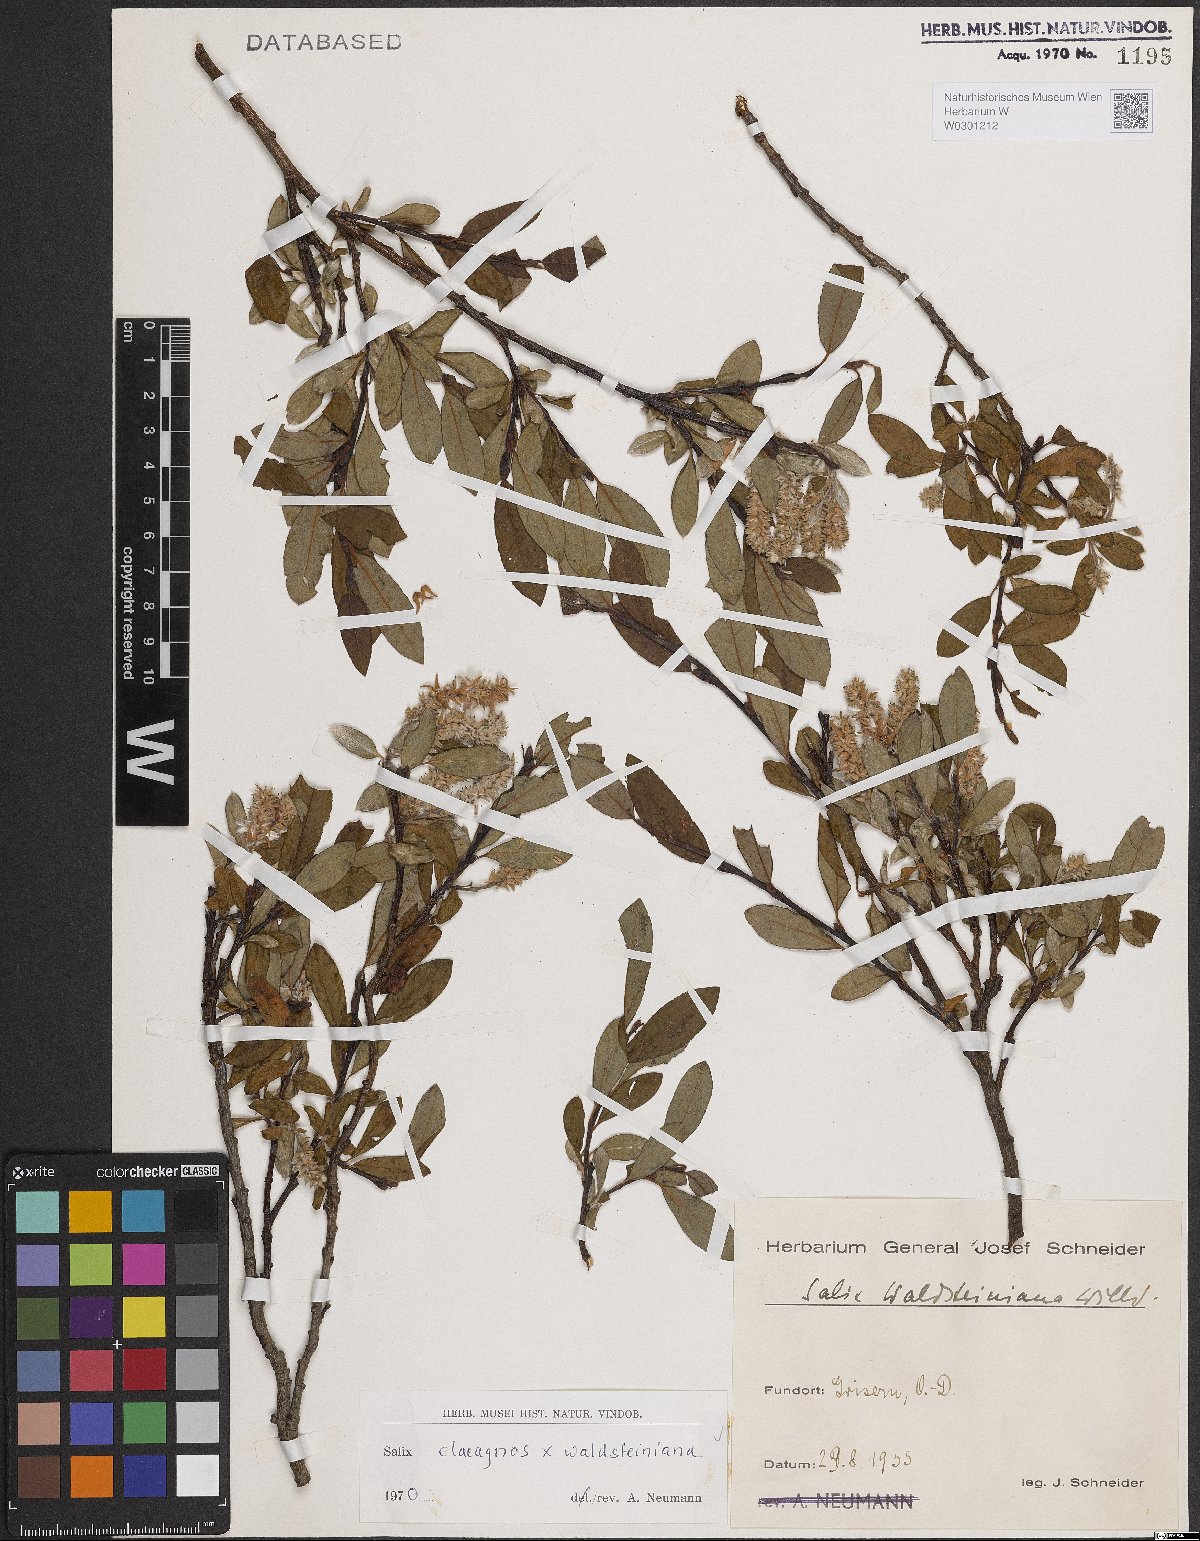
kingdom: Plantae
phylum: Tracheophyta
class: Magnoliopsida
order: Malpighiales
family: Salicaceae
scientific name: Salicaceae
